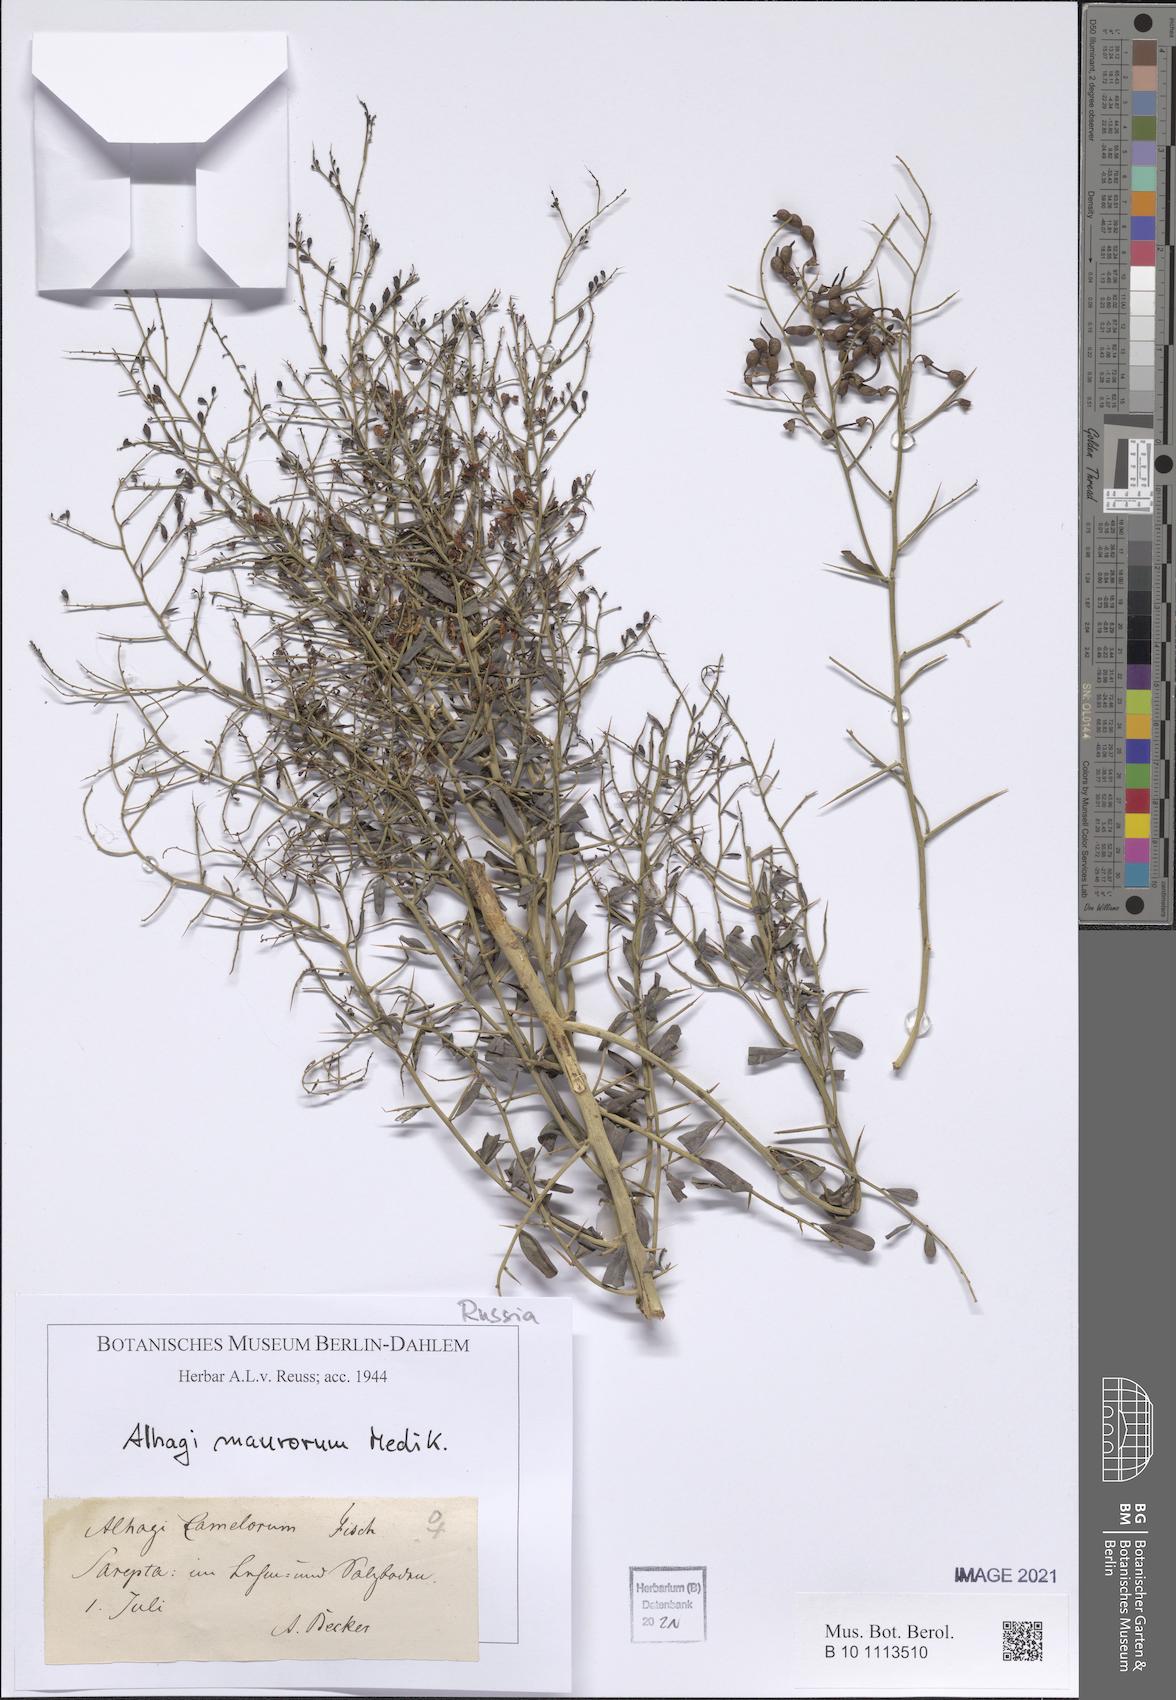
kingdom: Plantae
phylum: Tracheophyta
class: Magnoliopsida
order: Fabales
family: Fabaceae
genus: Alhagi
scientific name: Alhagi maurorum
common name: Camelthorn
